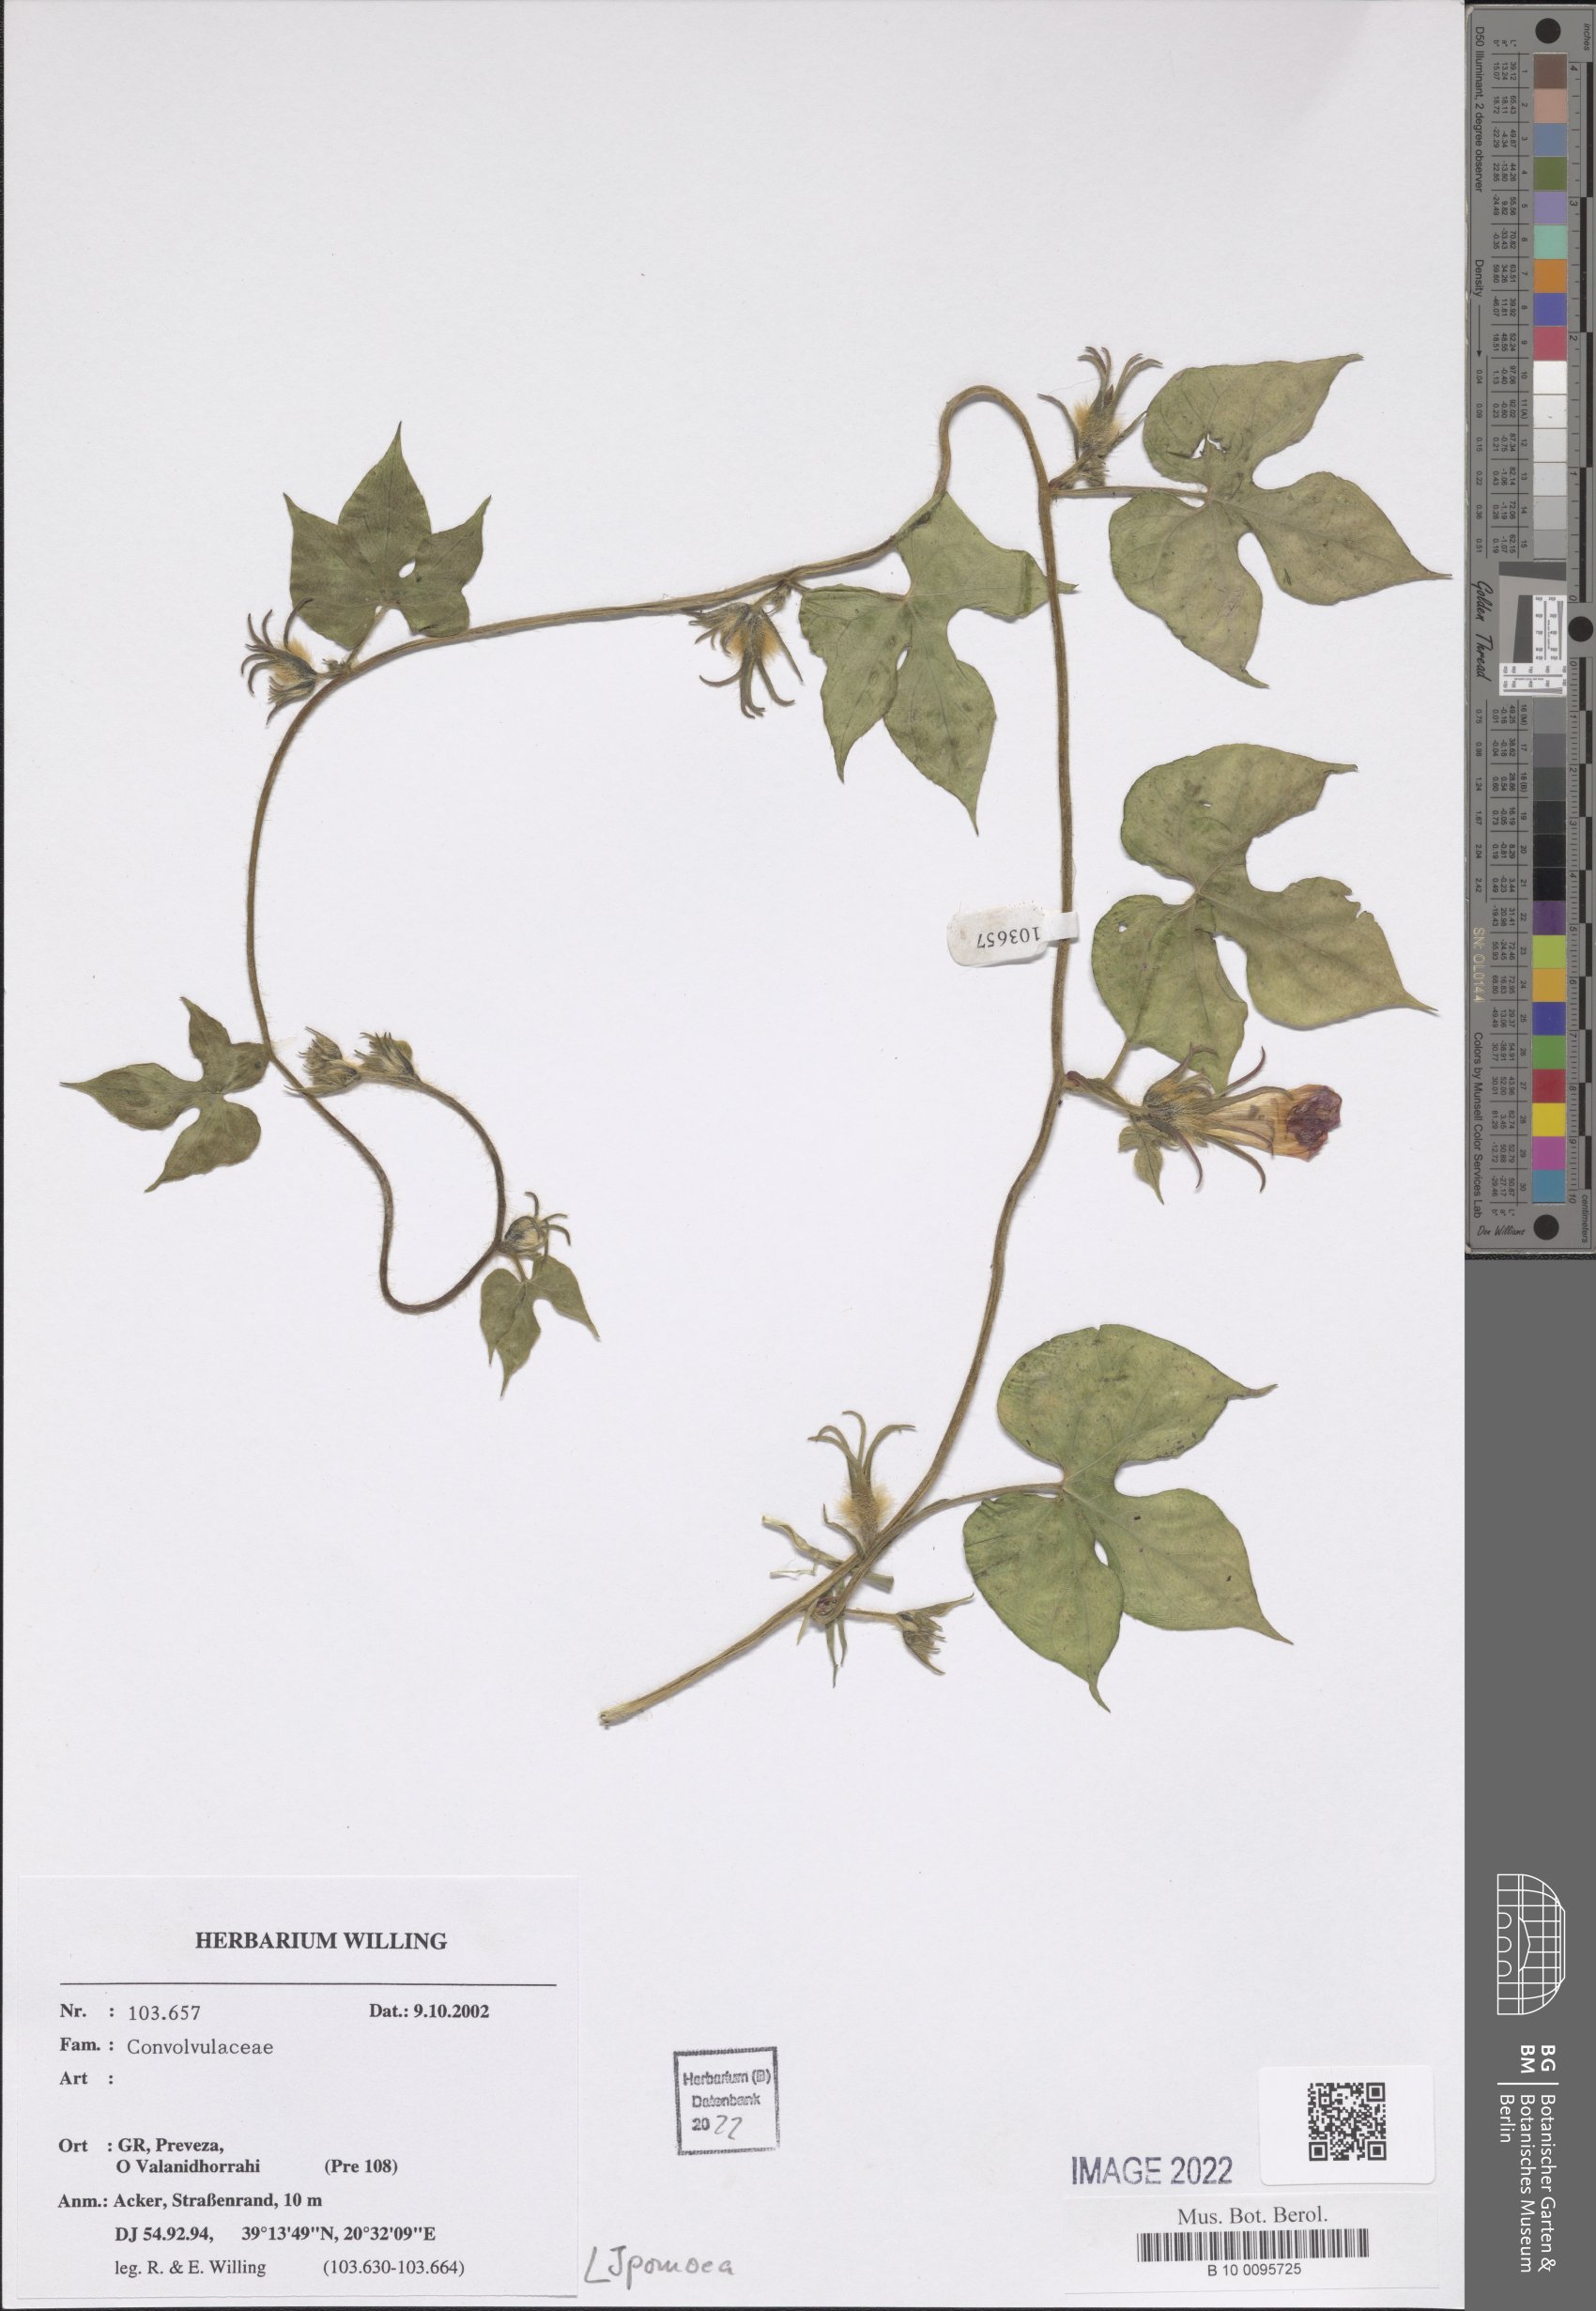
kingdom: Plantae
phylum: Tracheophyta
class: Magnoliopsida
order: Solanales
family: Convolvulaceae
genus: Ipomoea
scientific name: Ipomoea
